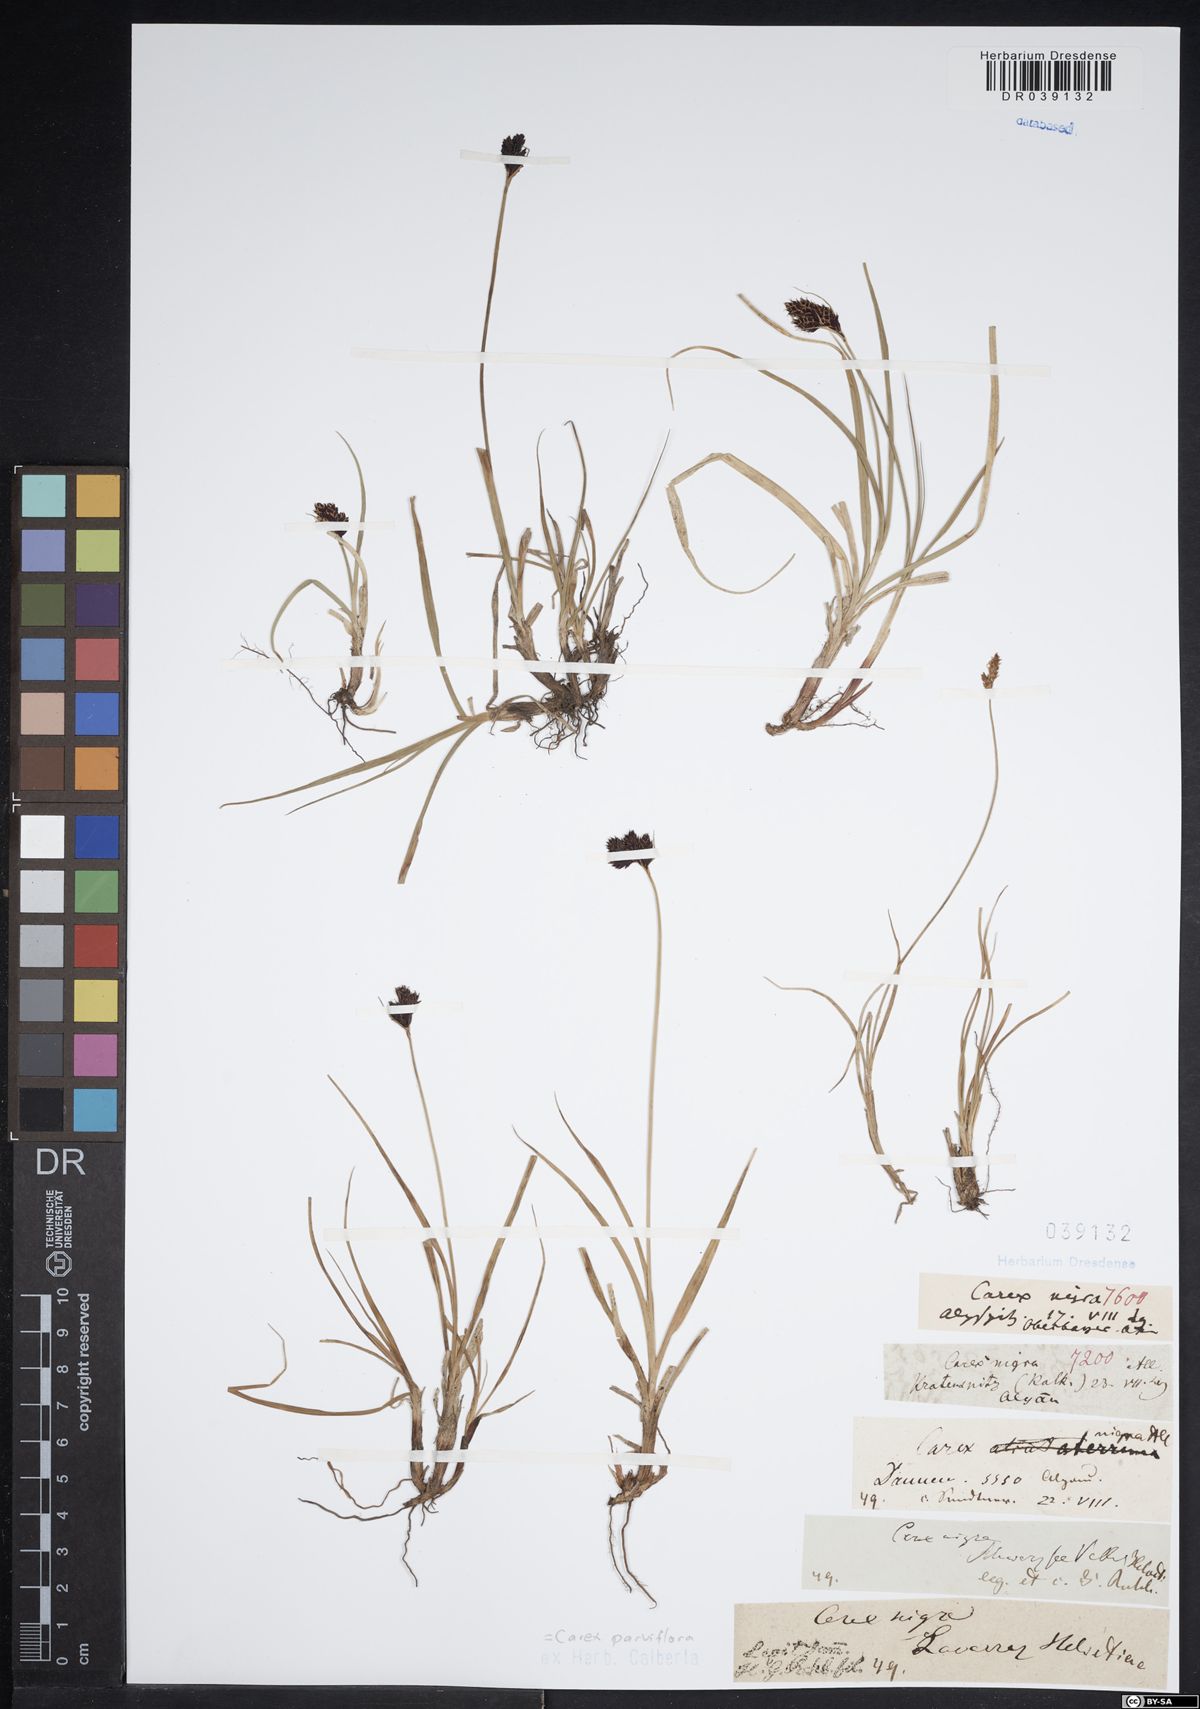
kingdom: Plantae
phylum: Tracheophyta
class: Liliopsida
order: Poales
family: Cyperaceae
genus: Carex
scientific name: Carex parviflora
